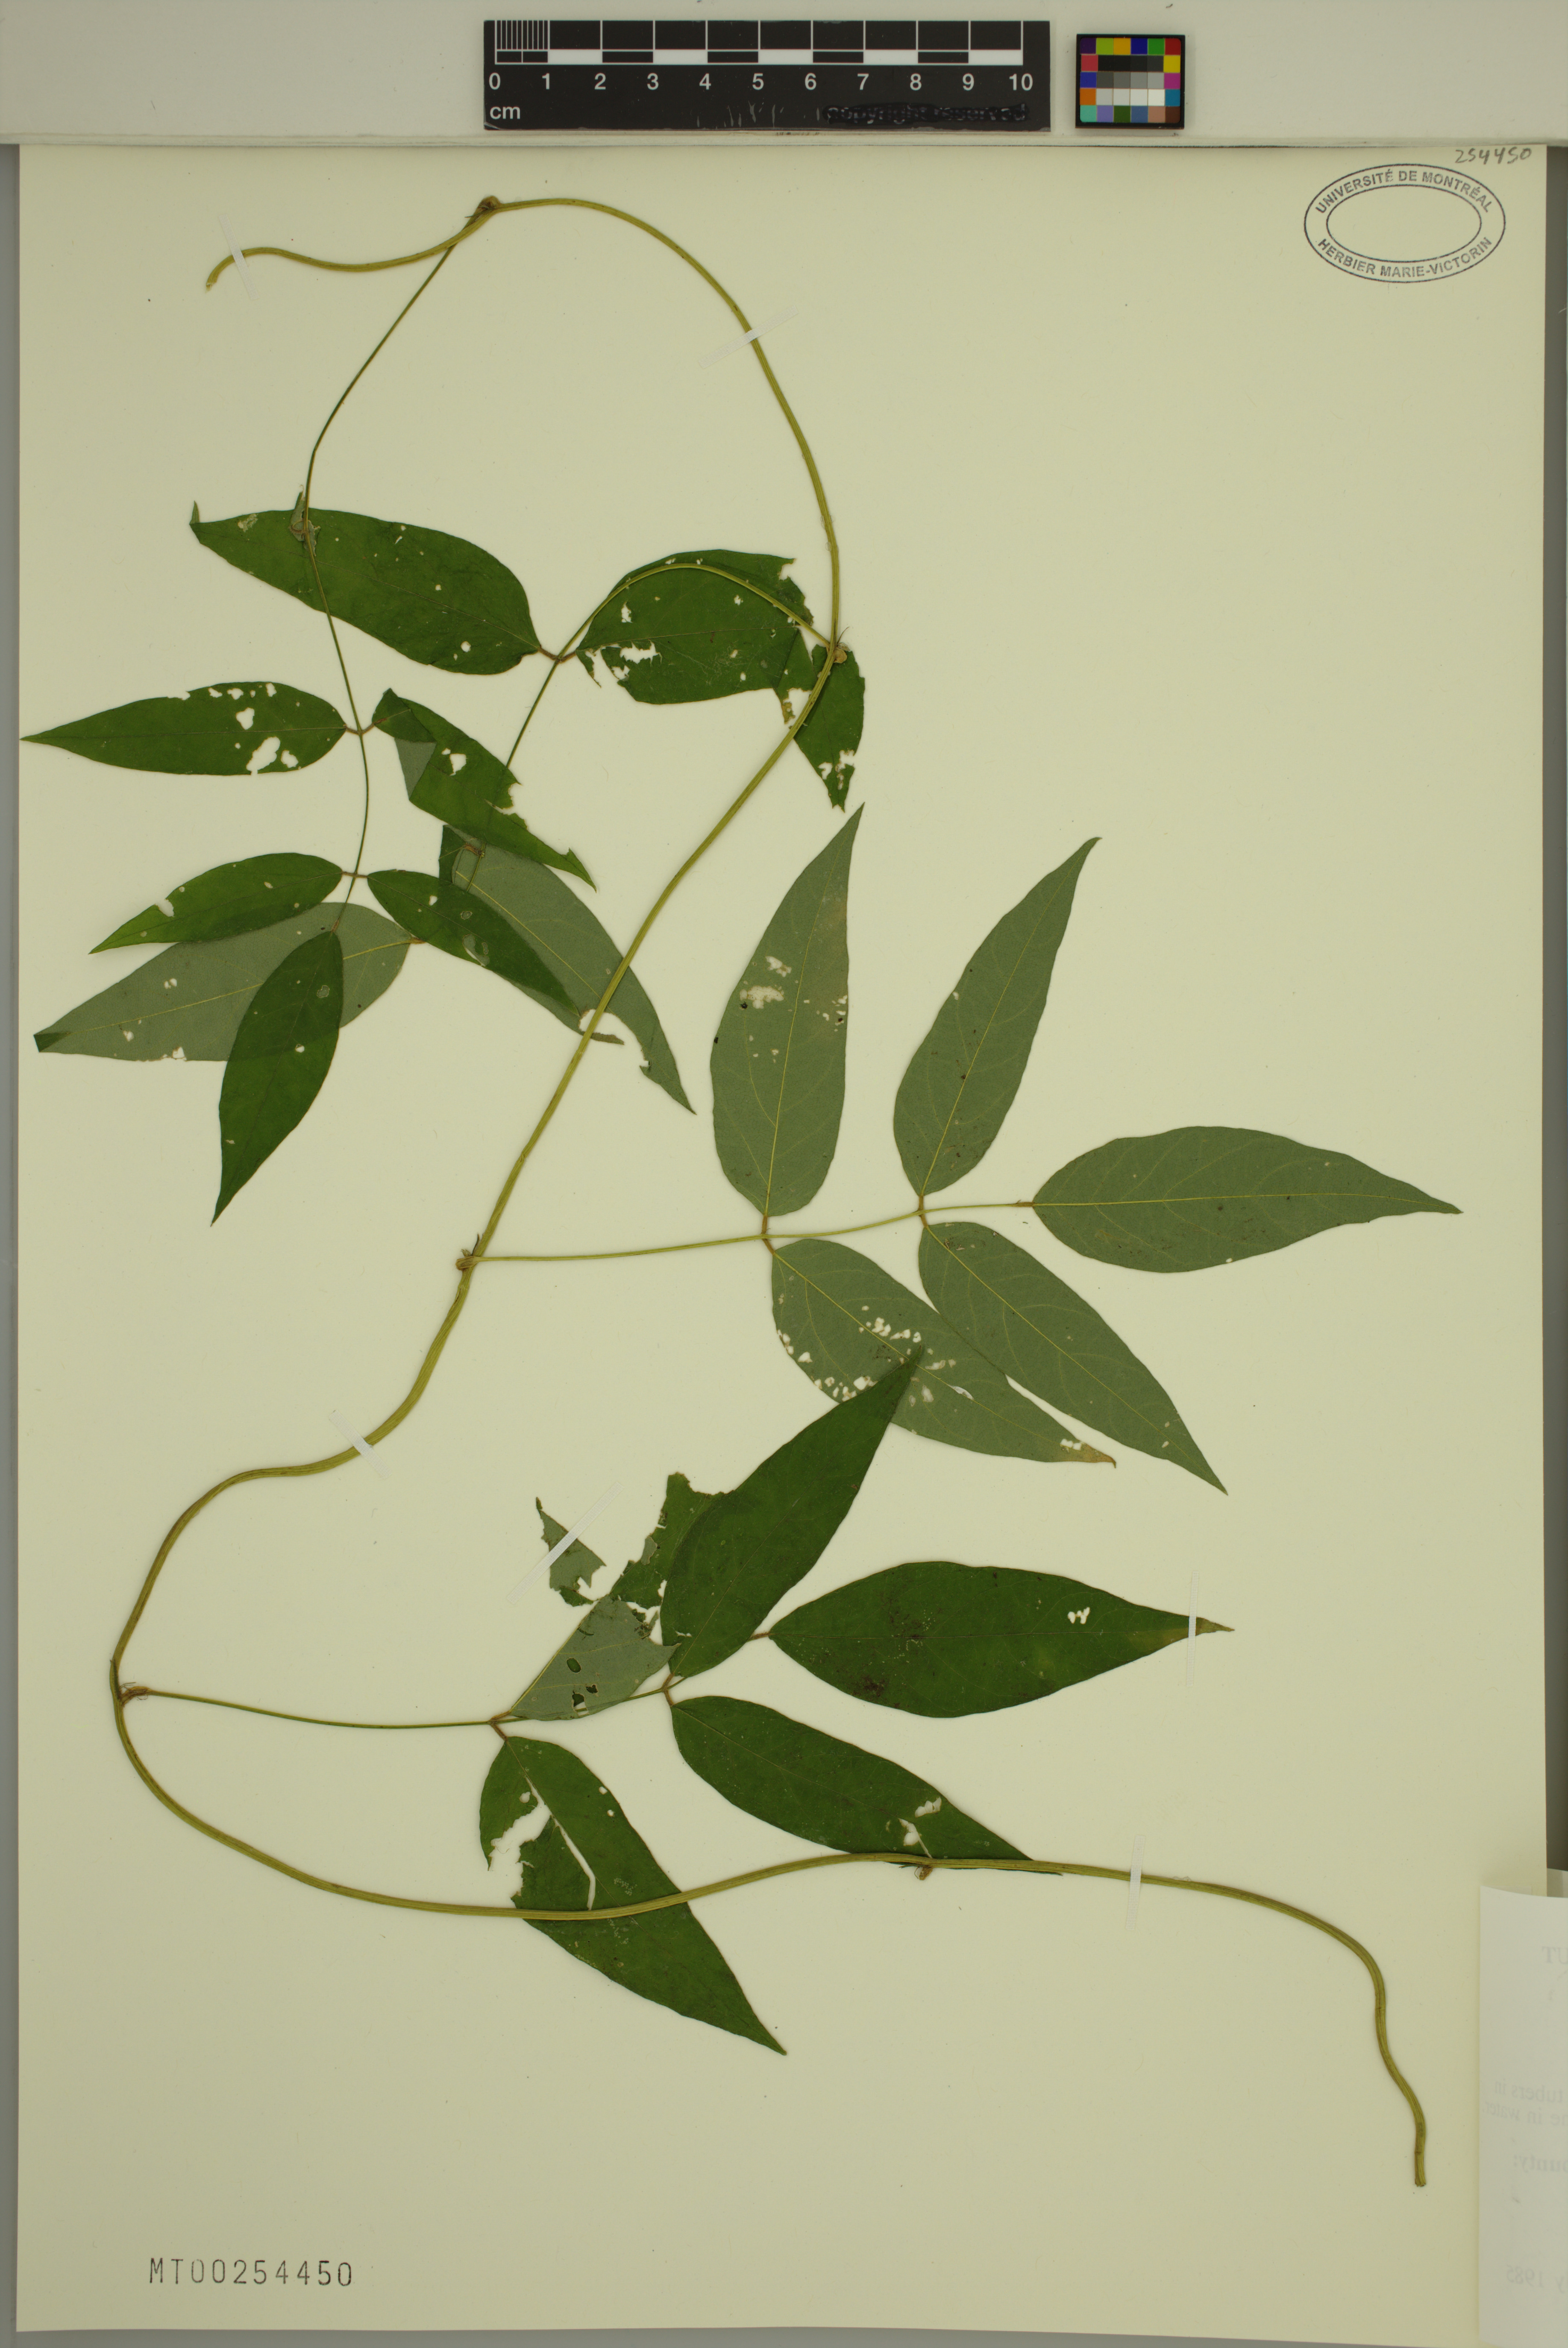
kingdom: Plantae
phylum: Tracheophyta
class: Magnoliopsida
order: Fabales
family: Fabaceae
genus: Apios
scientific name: Apios americana
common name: American potato-bean
